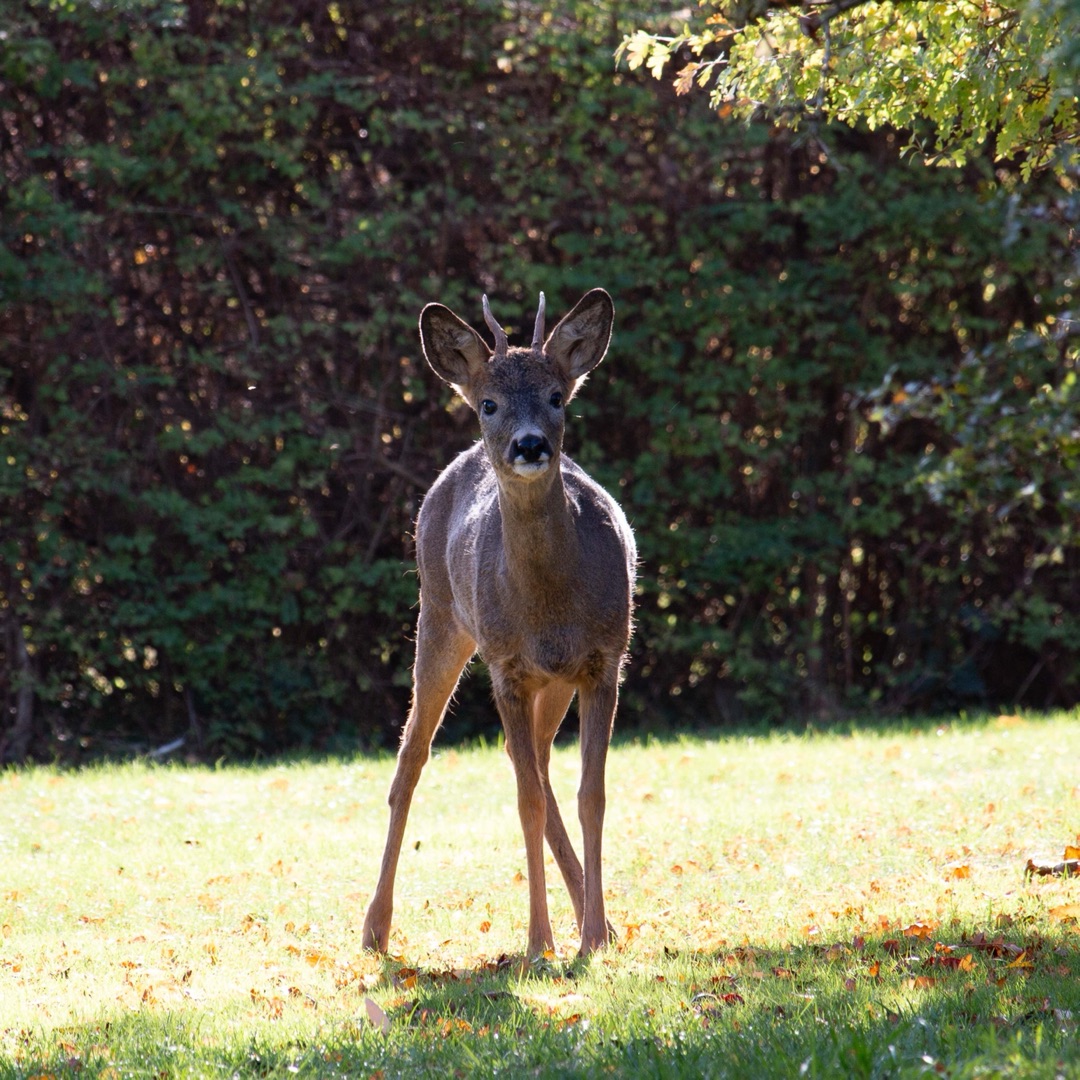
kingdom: Animalia
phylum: Chordata
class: Mammalia
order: Artiodactyla
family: Cervidae
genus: Capreolus
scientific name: Capreolus capreolus
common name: Rådyr
